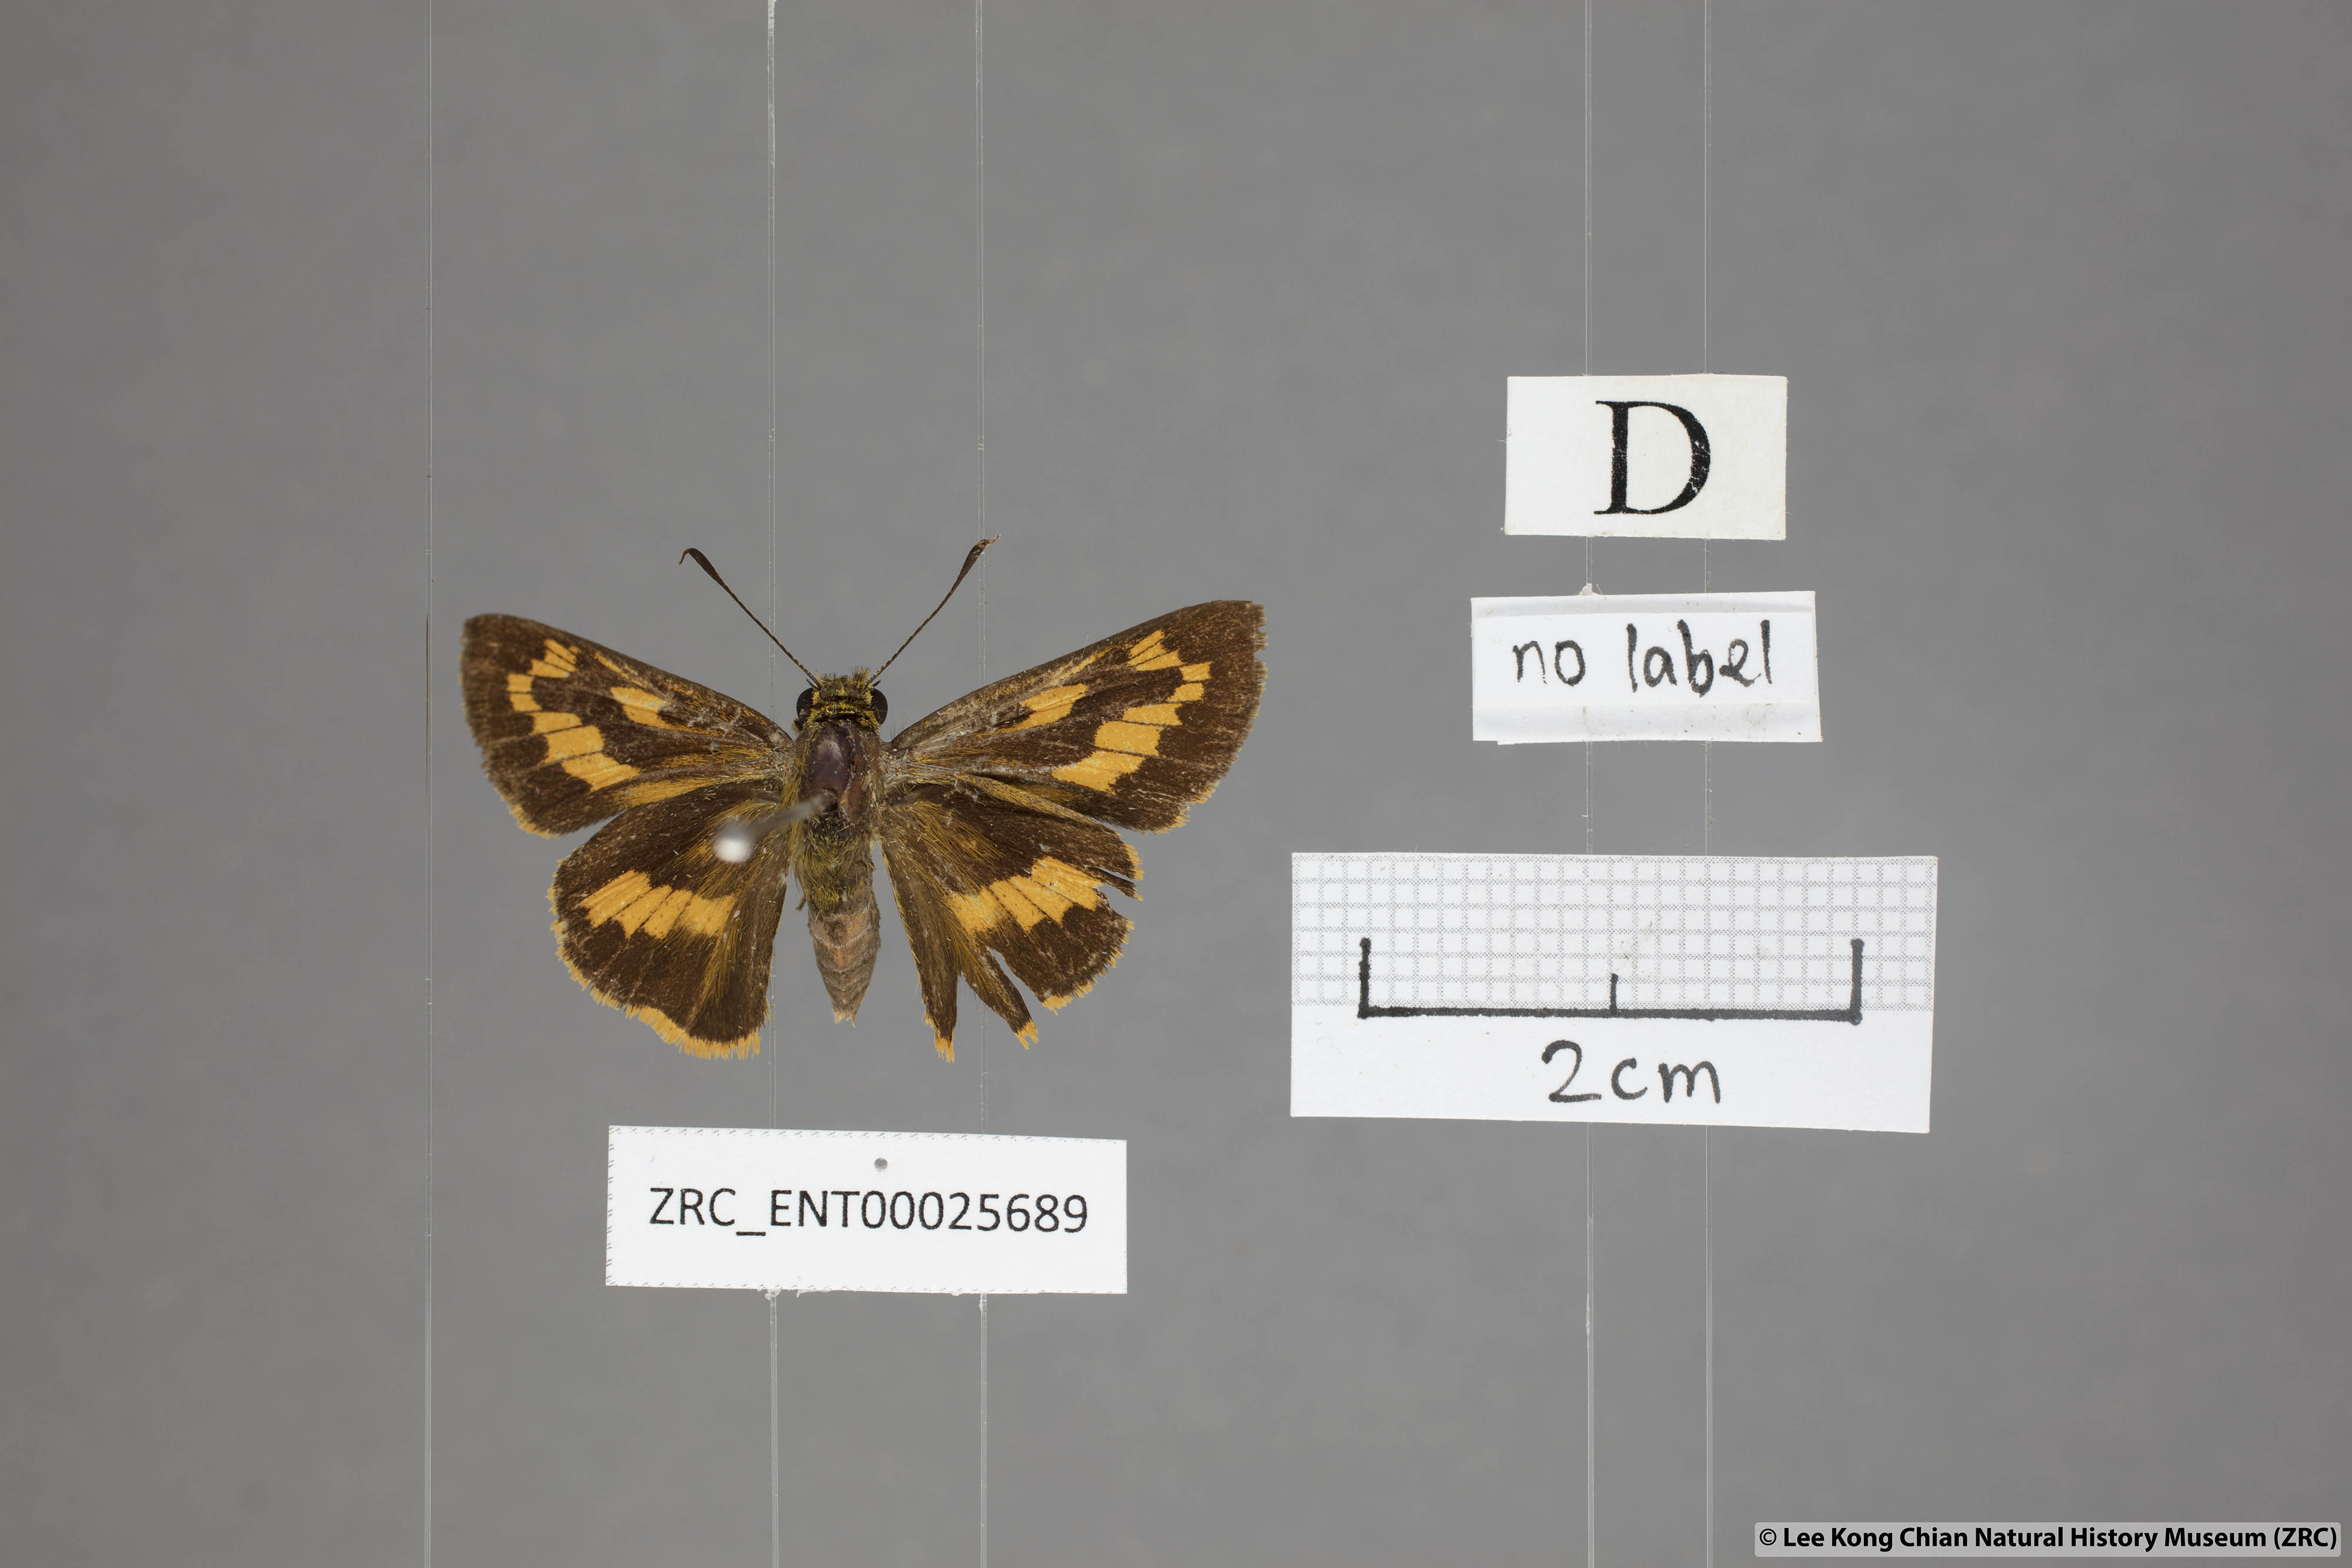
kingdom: Animalia
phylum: Arthropoda
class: Insecta
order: Lepidoptera
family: Hesperiidae
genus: Telicota
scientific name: Telicota ohara
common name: Dark palm dart
